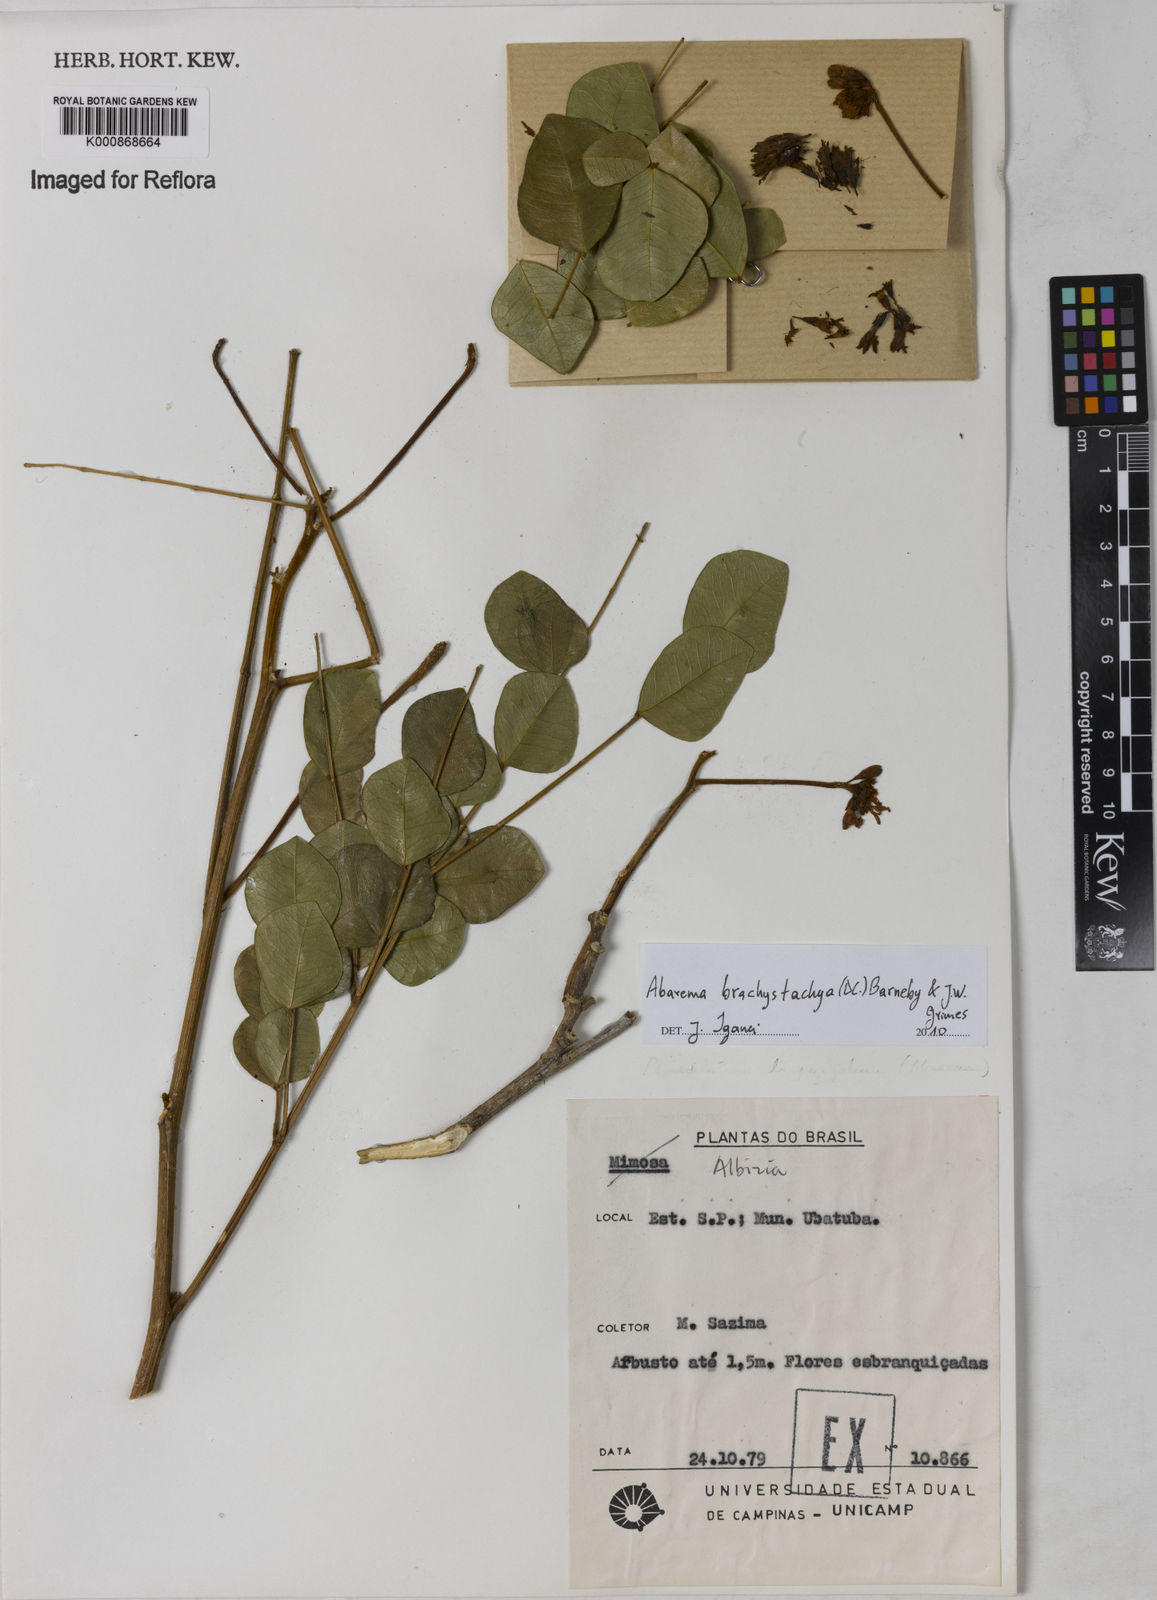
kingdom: Plantae
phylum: Tracheophyta
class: Magnoliopsida
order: Fabales
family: Fabaceae
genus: Abarema
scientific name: Abarema
